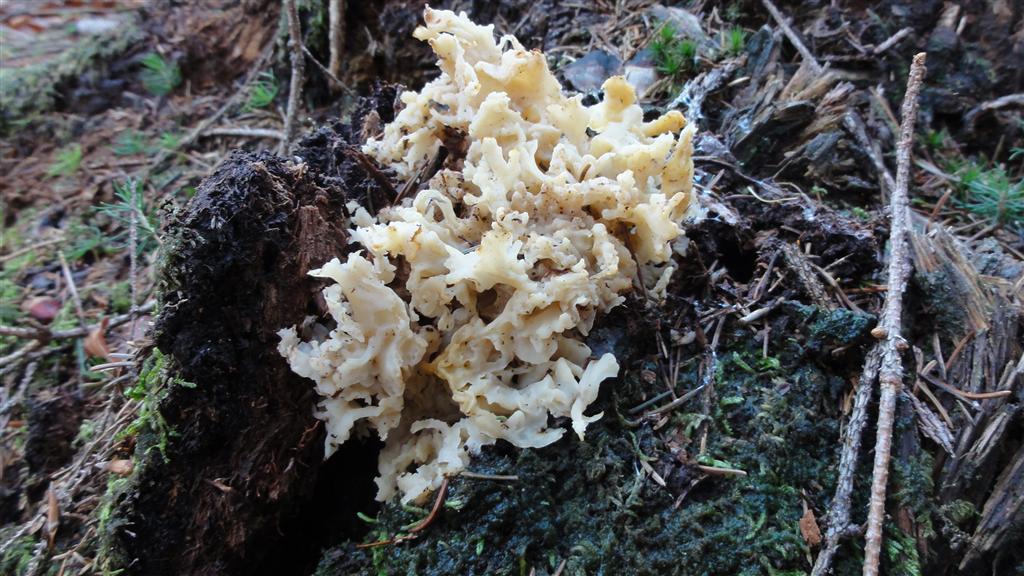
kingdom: Fungi
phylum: Basidiomycota
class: Agaricomycetes
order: Polyporales
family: Sparassidaceae
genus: Sparassis
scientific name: Sparassis crispa
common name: kruset blomkålssvamp
